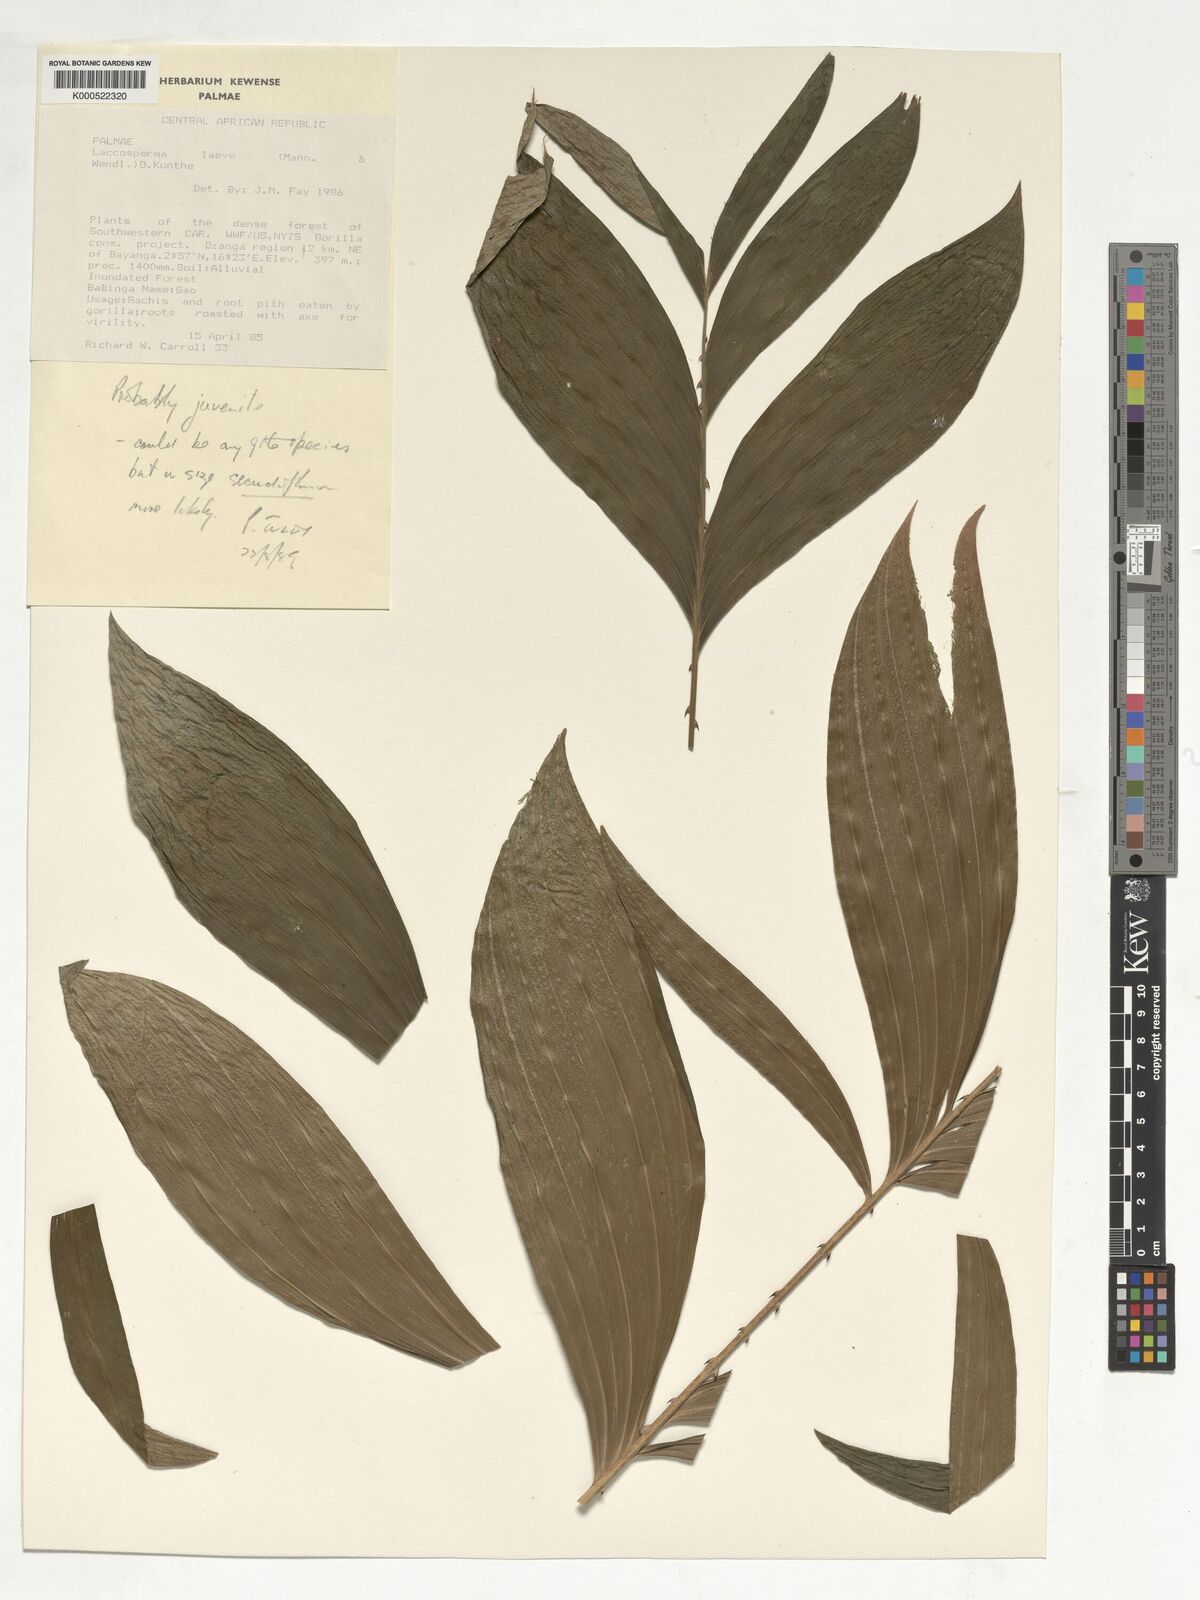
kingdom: Plantae
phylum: Tracheophyta
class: Liliopsida
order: Arecales
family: Arecaceae
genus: Laccosperma
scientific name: Laccosperma laeve
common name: Rattan
